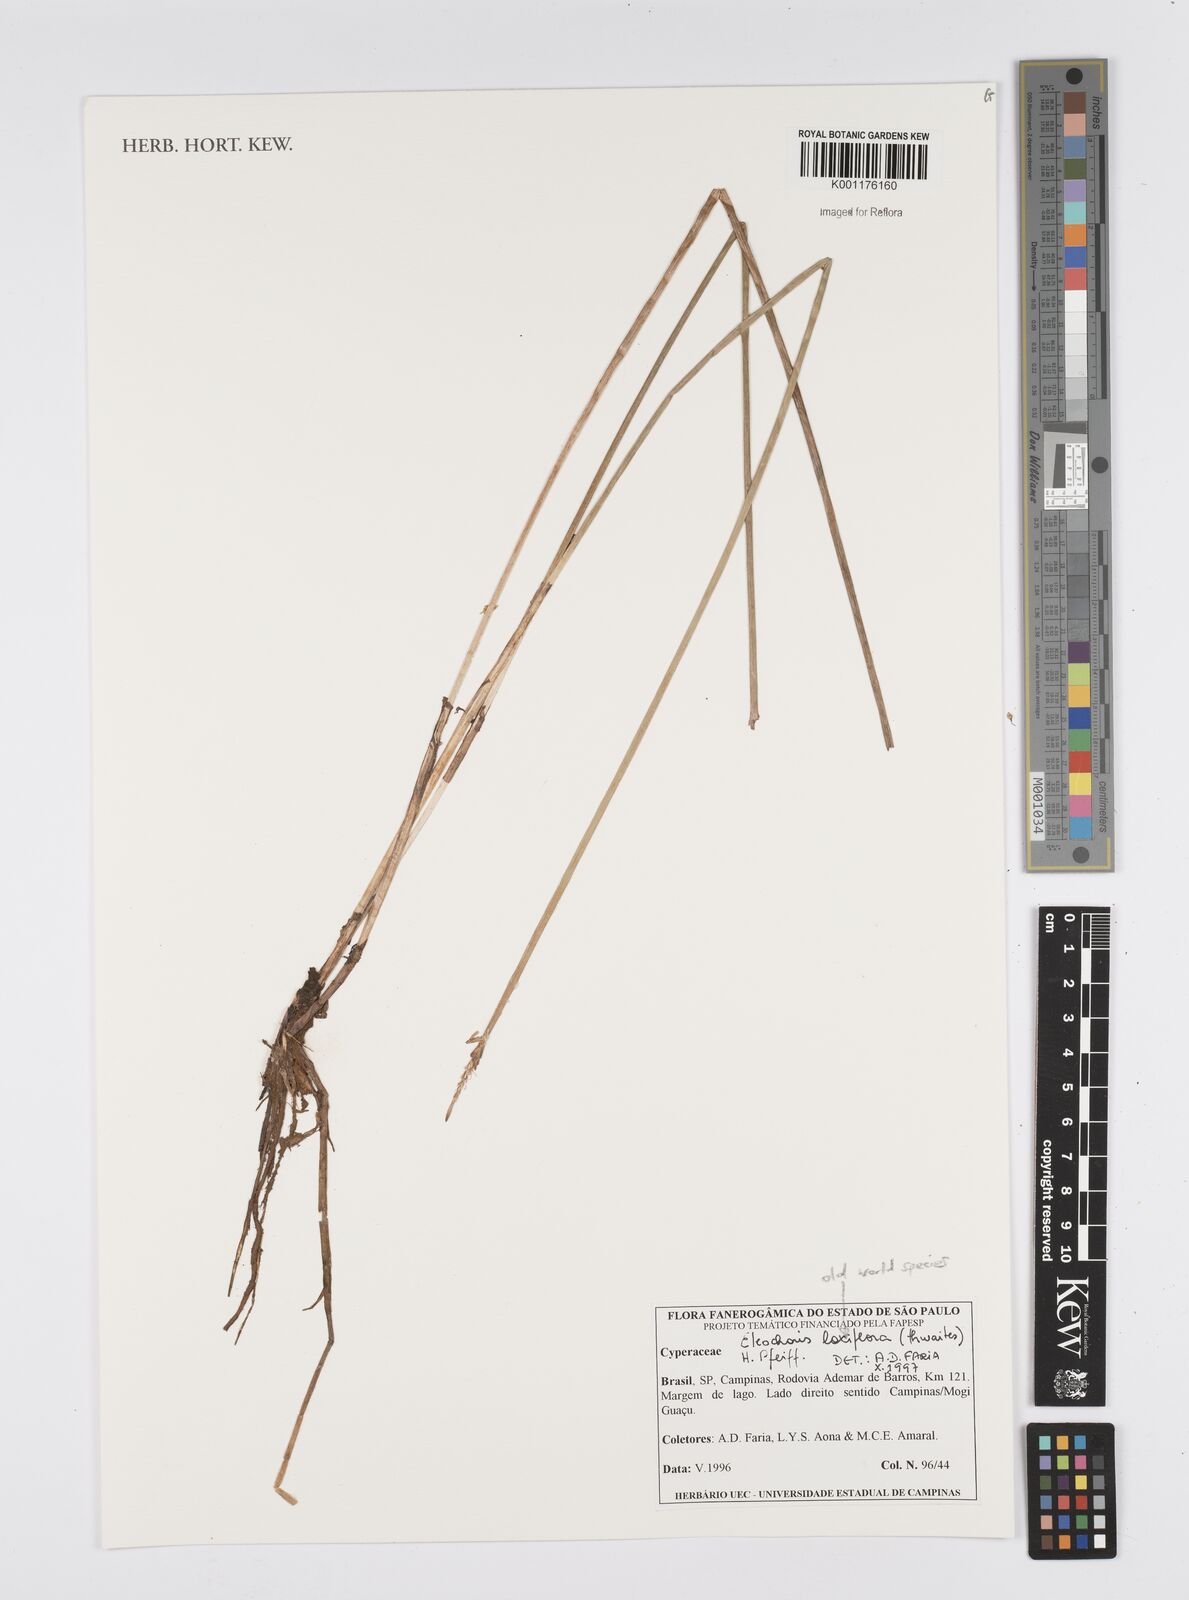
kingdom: Plantae
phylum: Tracheophyta
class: Liliopsida
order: Poales
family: Cyperaceae
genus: Eleocharis
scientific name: Eleocharis
